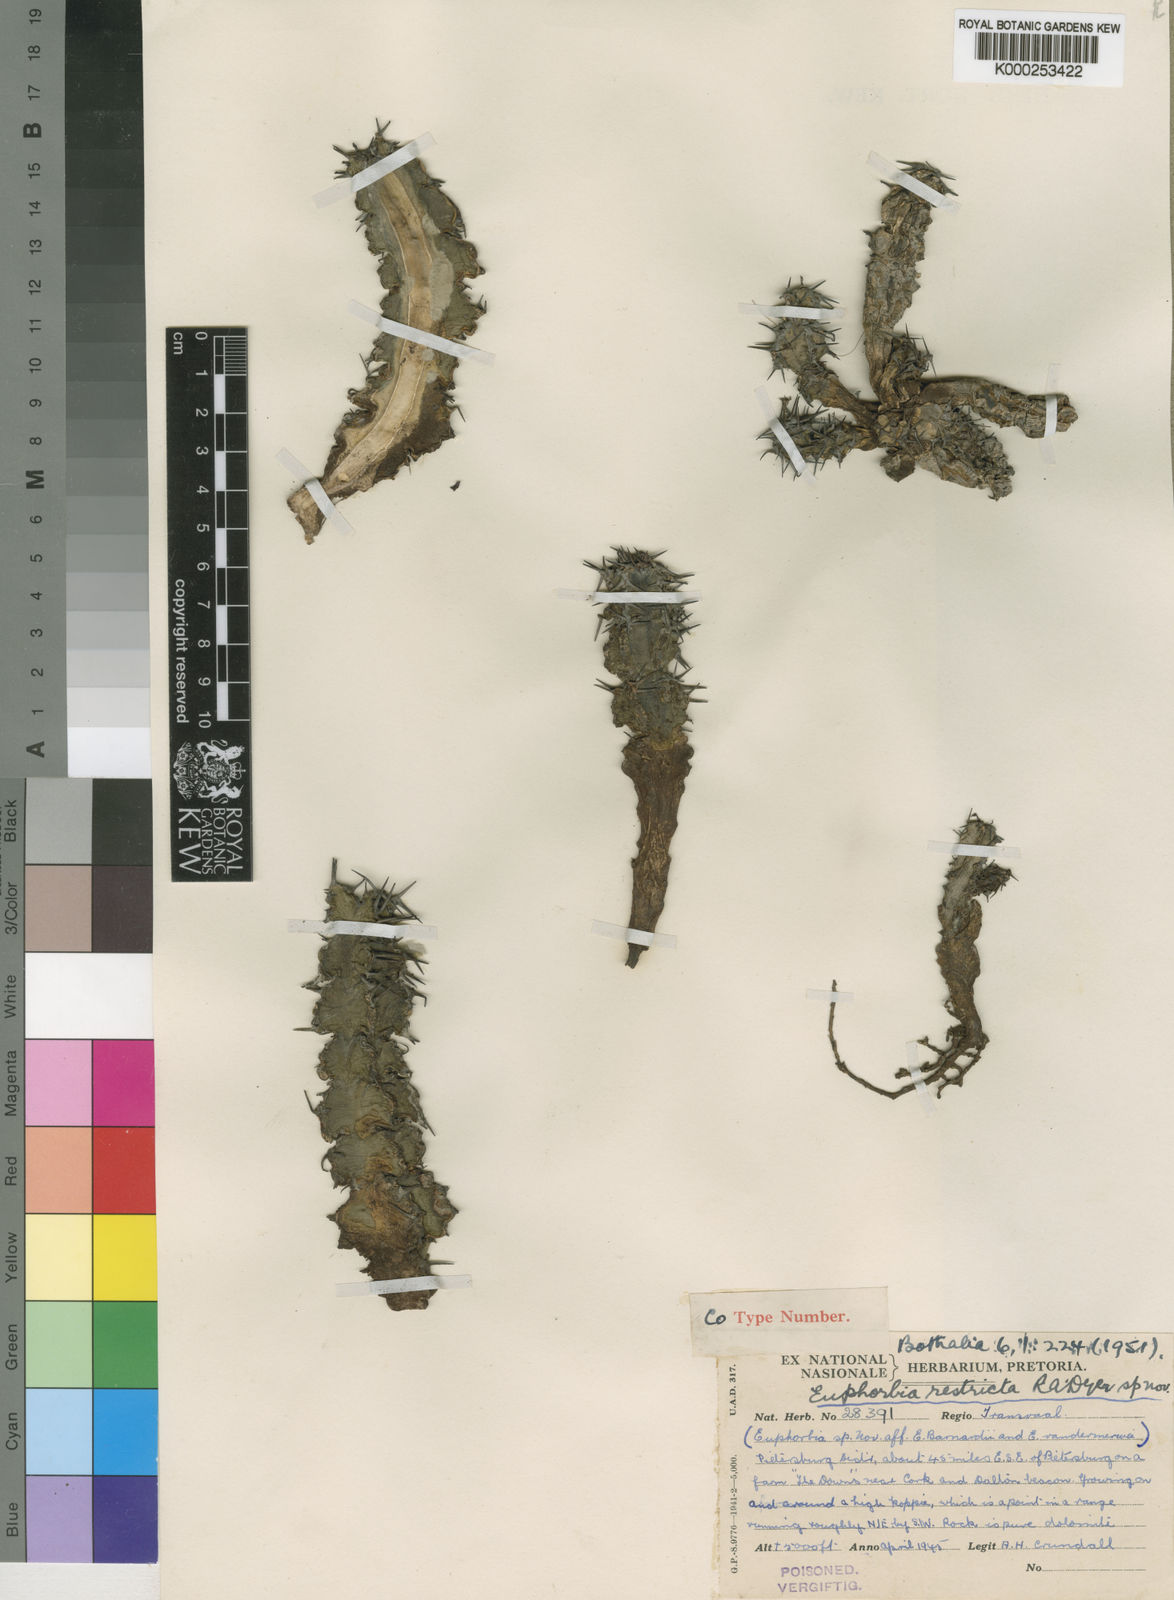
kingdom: Plantae
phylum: Tracheophyta
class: Magnoliopsida
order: Malpighiales
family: Euphorbiaceae
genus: Euphorbia
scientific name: Euphorbia restricta
